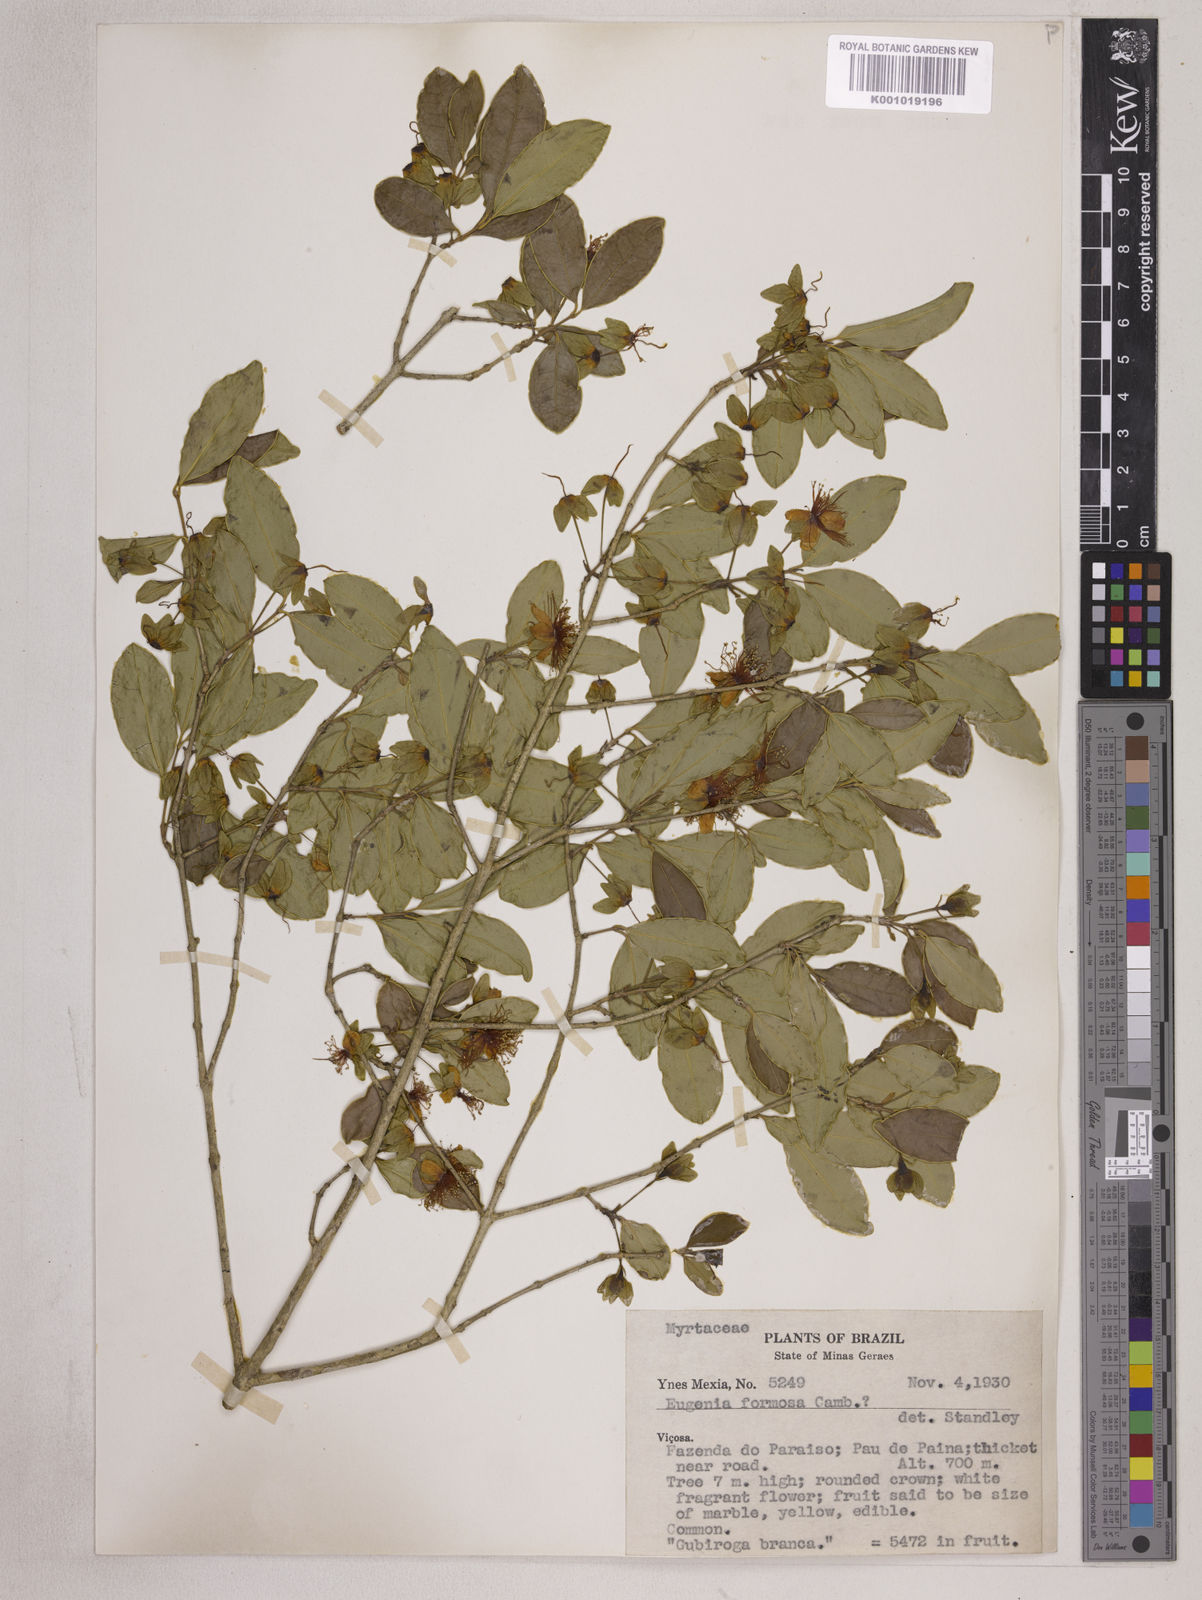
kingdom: Plantae
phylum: Tracheophyta
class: Magnoliopsida
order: Myrtales
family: Myrtaceae
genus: Eugenia
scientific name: Eugenia neoformosa
